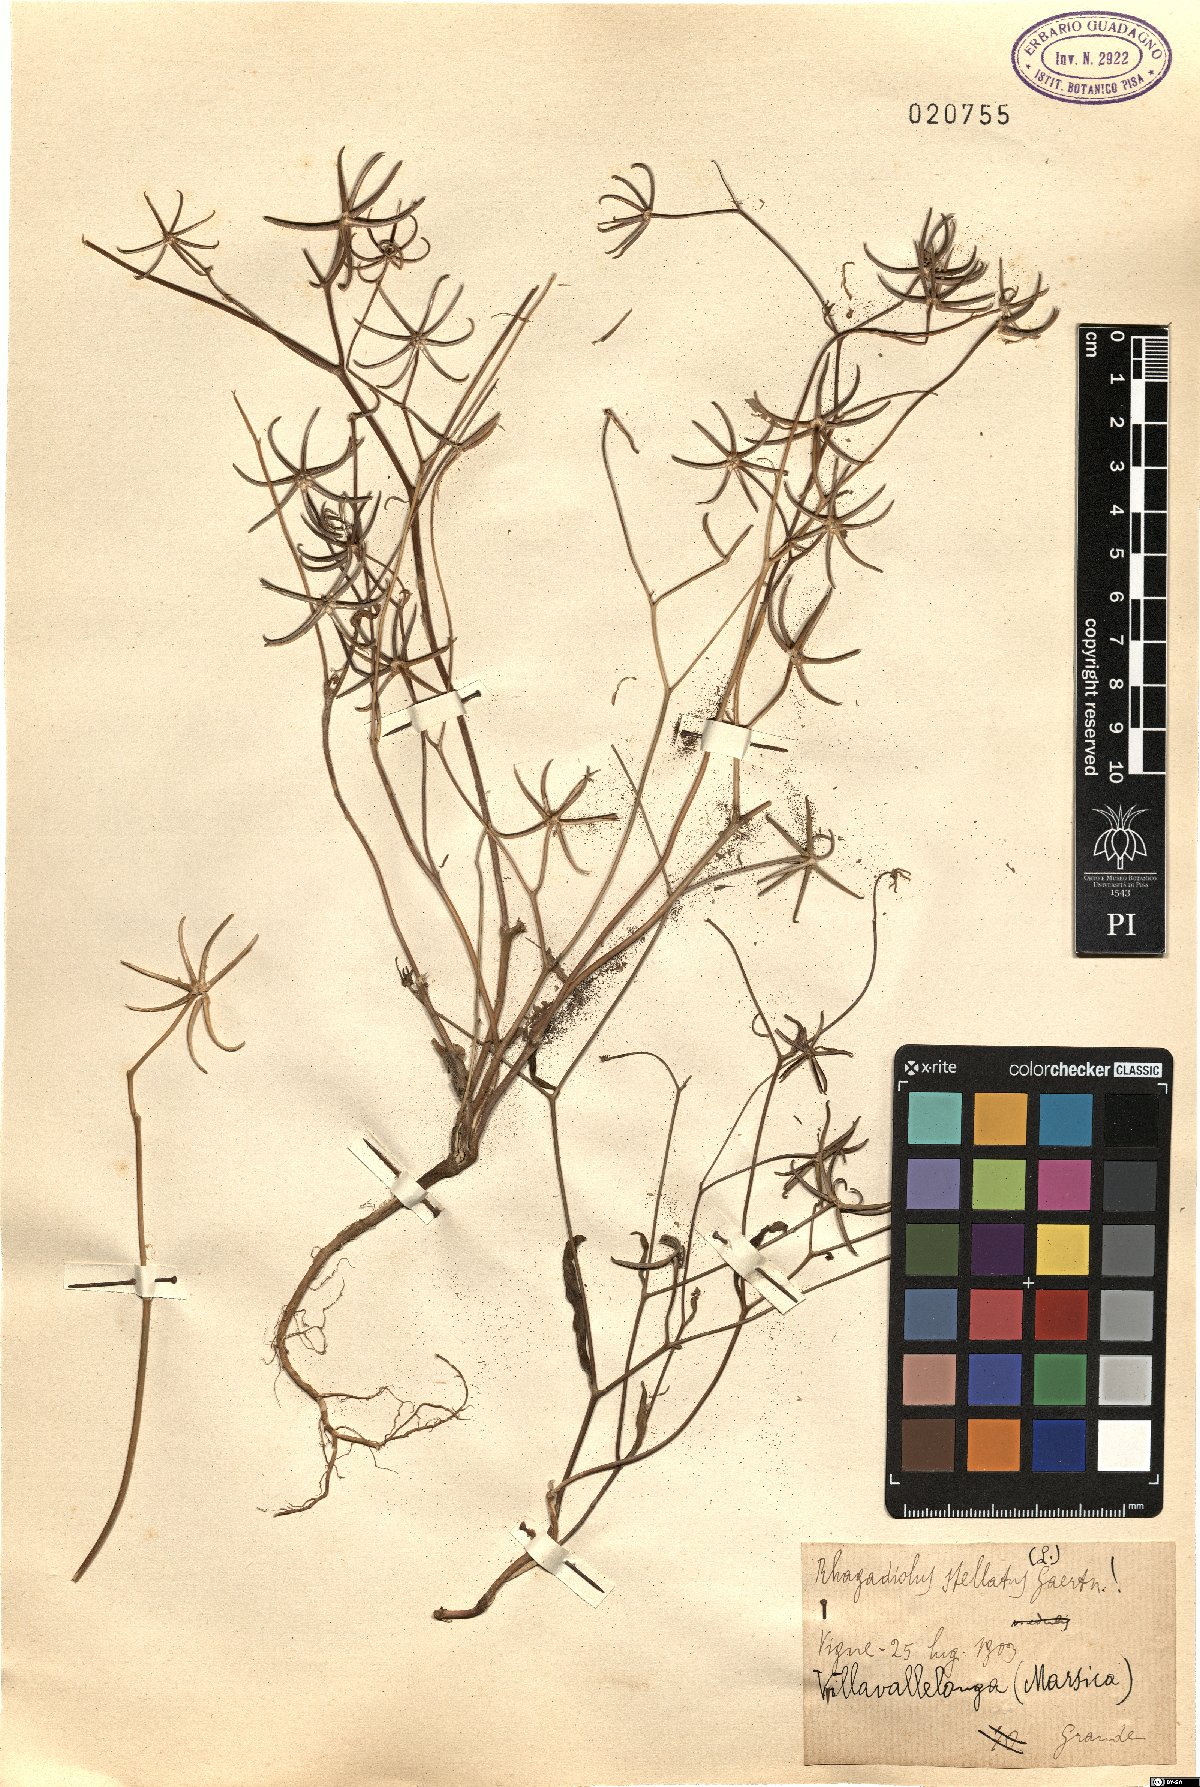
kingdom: Plantae
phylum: Tracheophyta
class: Magnoliopsida
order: Asterales
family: Asteraceae
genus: Rhagadiolus
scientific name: Rhagadiolus stellatus
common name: Star hawkbit
